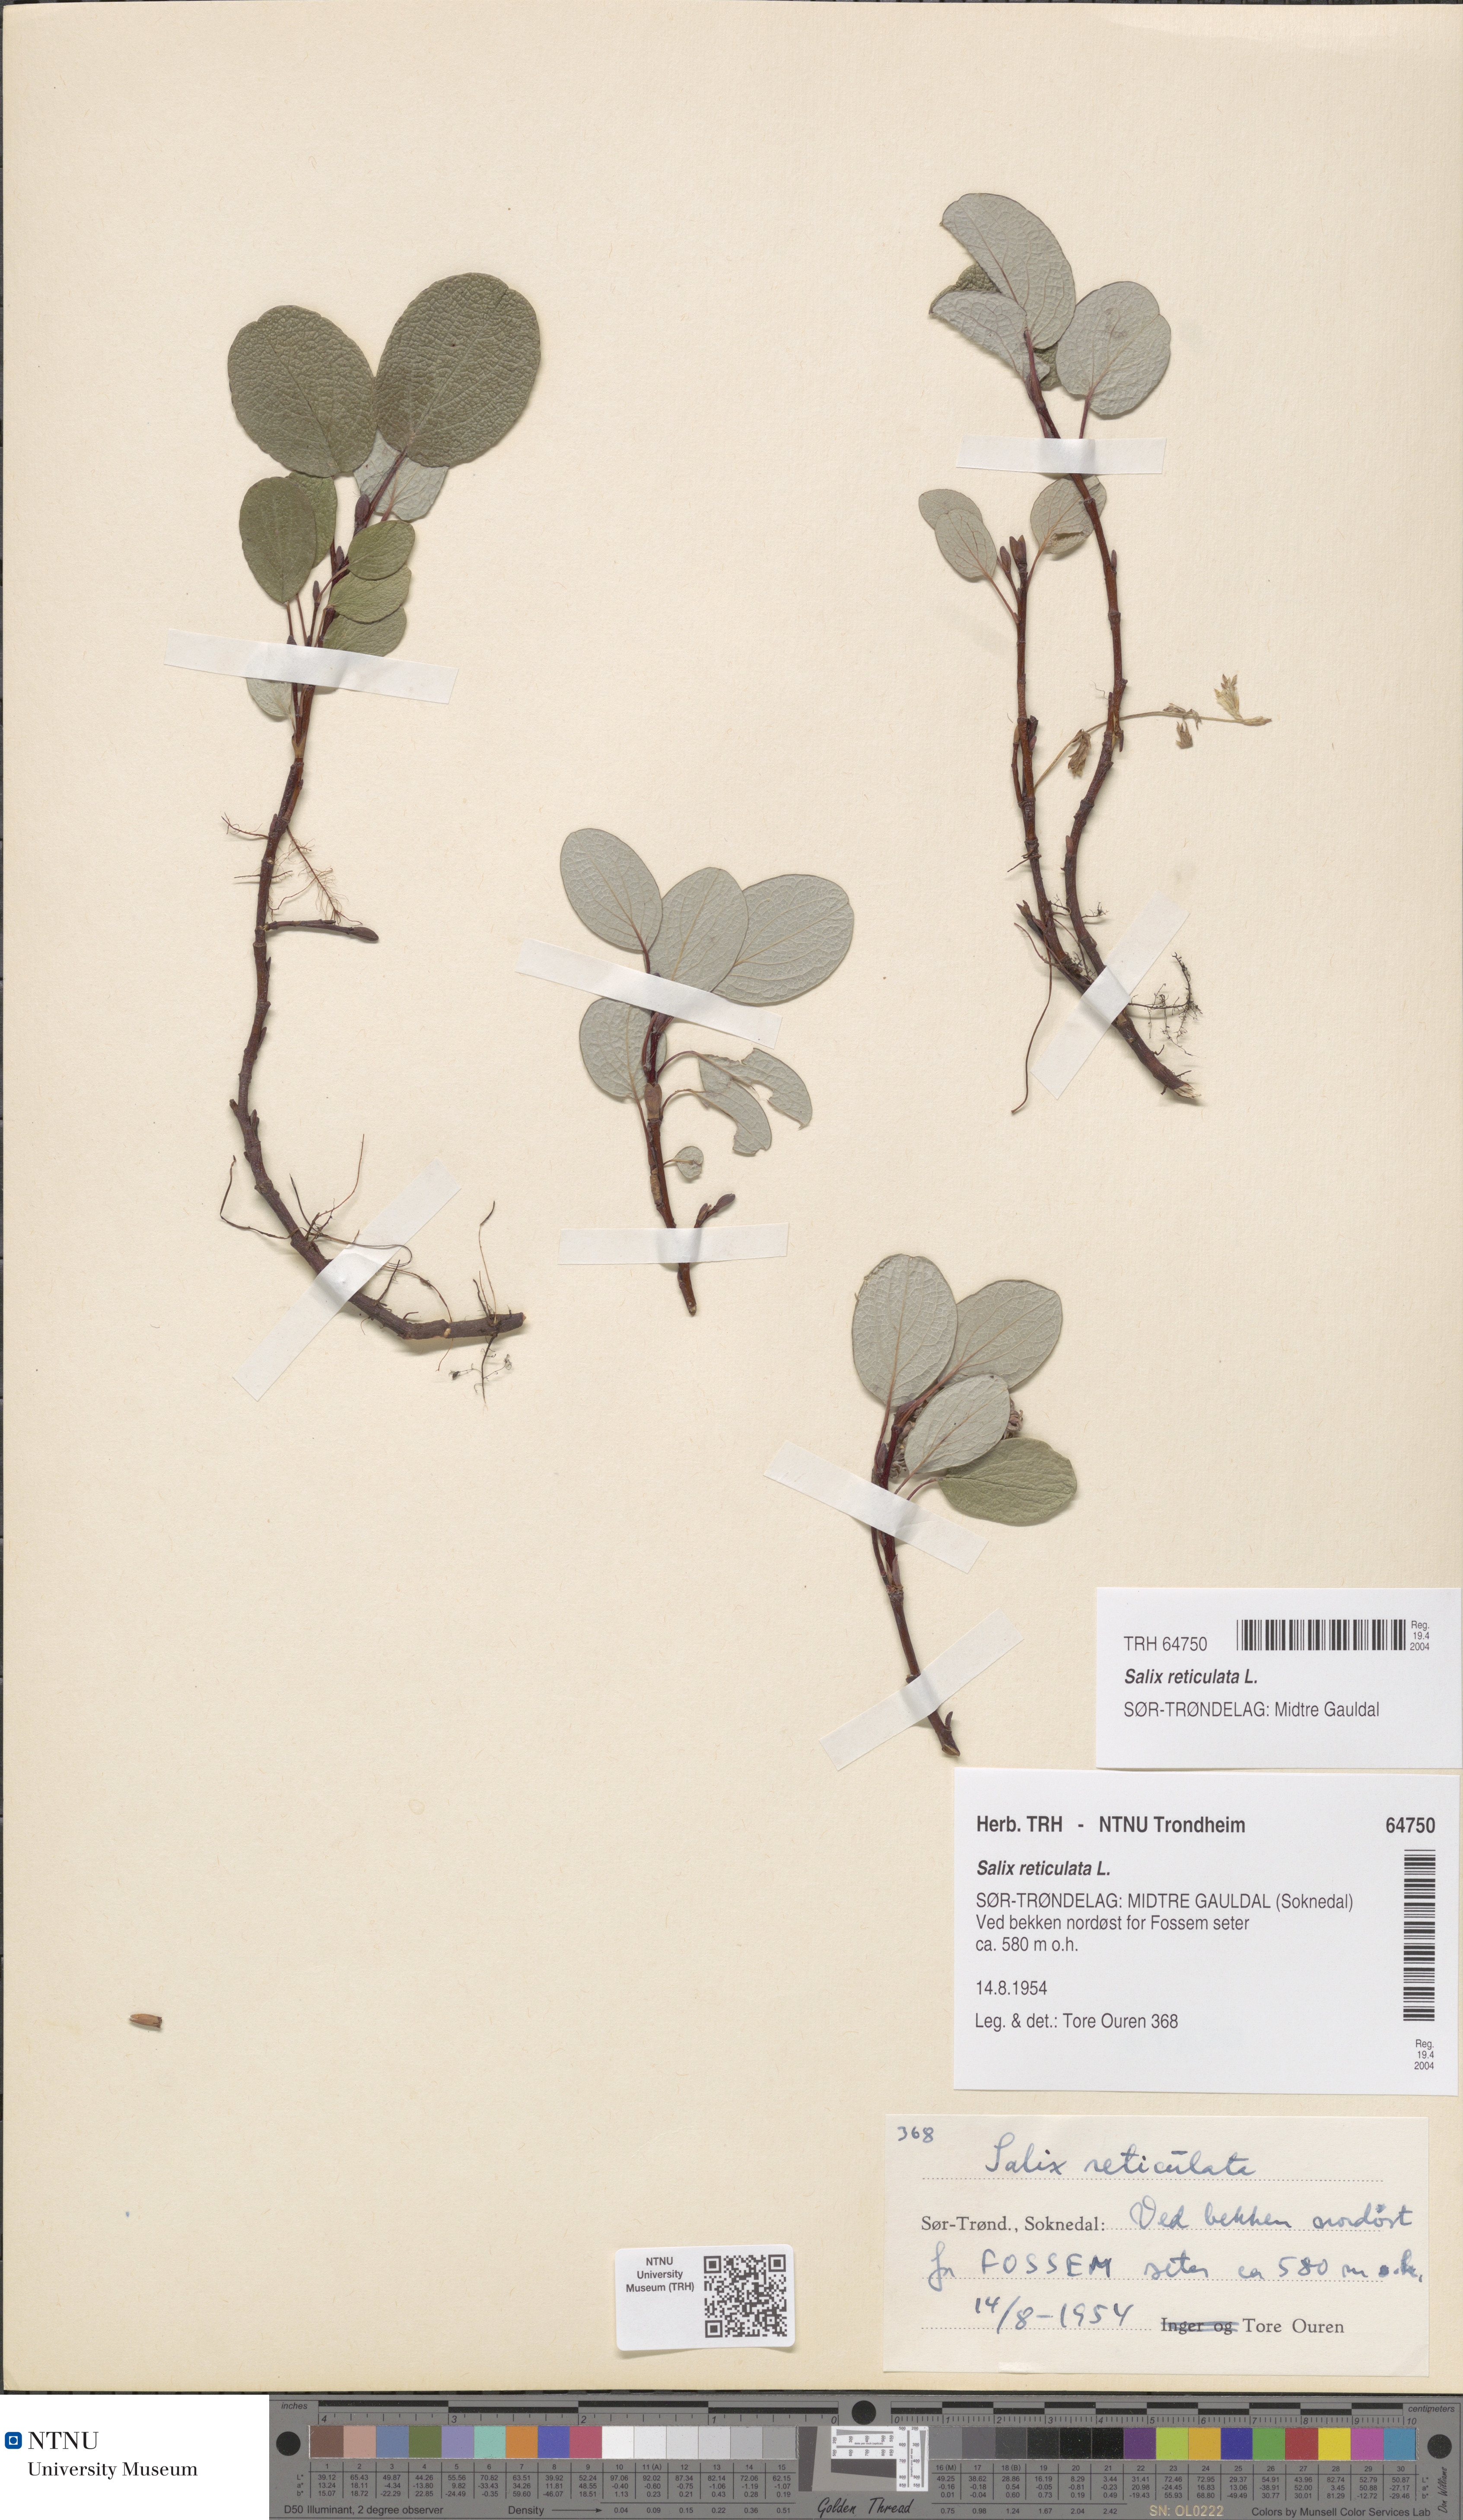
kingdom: Plantae
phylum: Tracheophyta
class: Magnoliopsida
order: Malpighiales
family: Salicaceae
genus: Salix
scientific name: Salix reticulata
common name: Net-leaved willow
